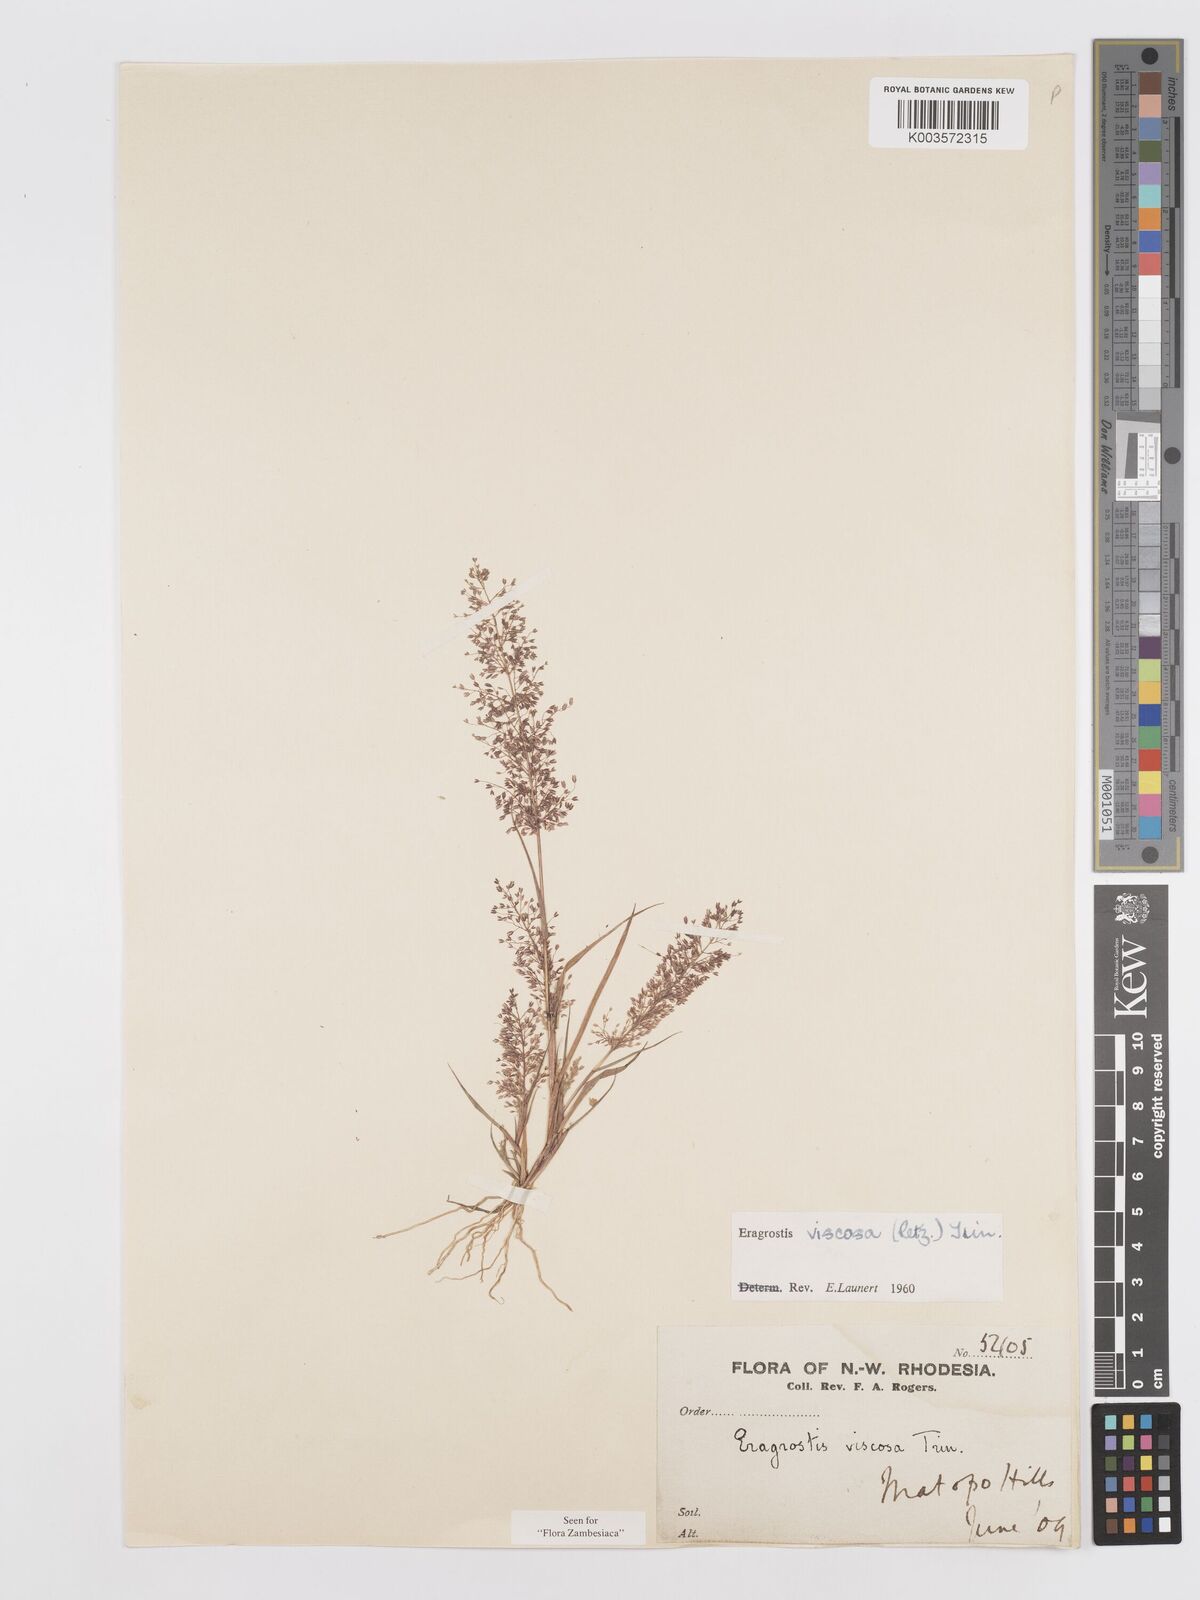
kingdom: Plantae
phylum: Tracheophyta
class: Liliopsida
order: Poales
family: Poaceae
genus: Eragrostis
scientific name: Eragrostis
